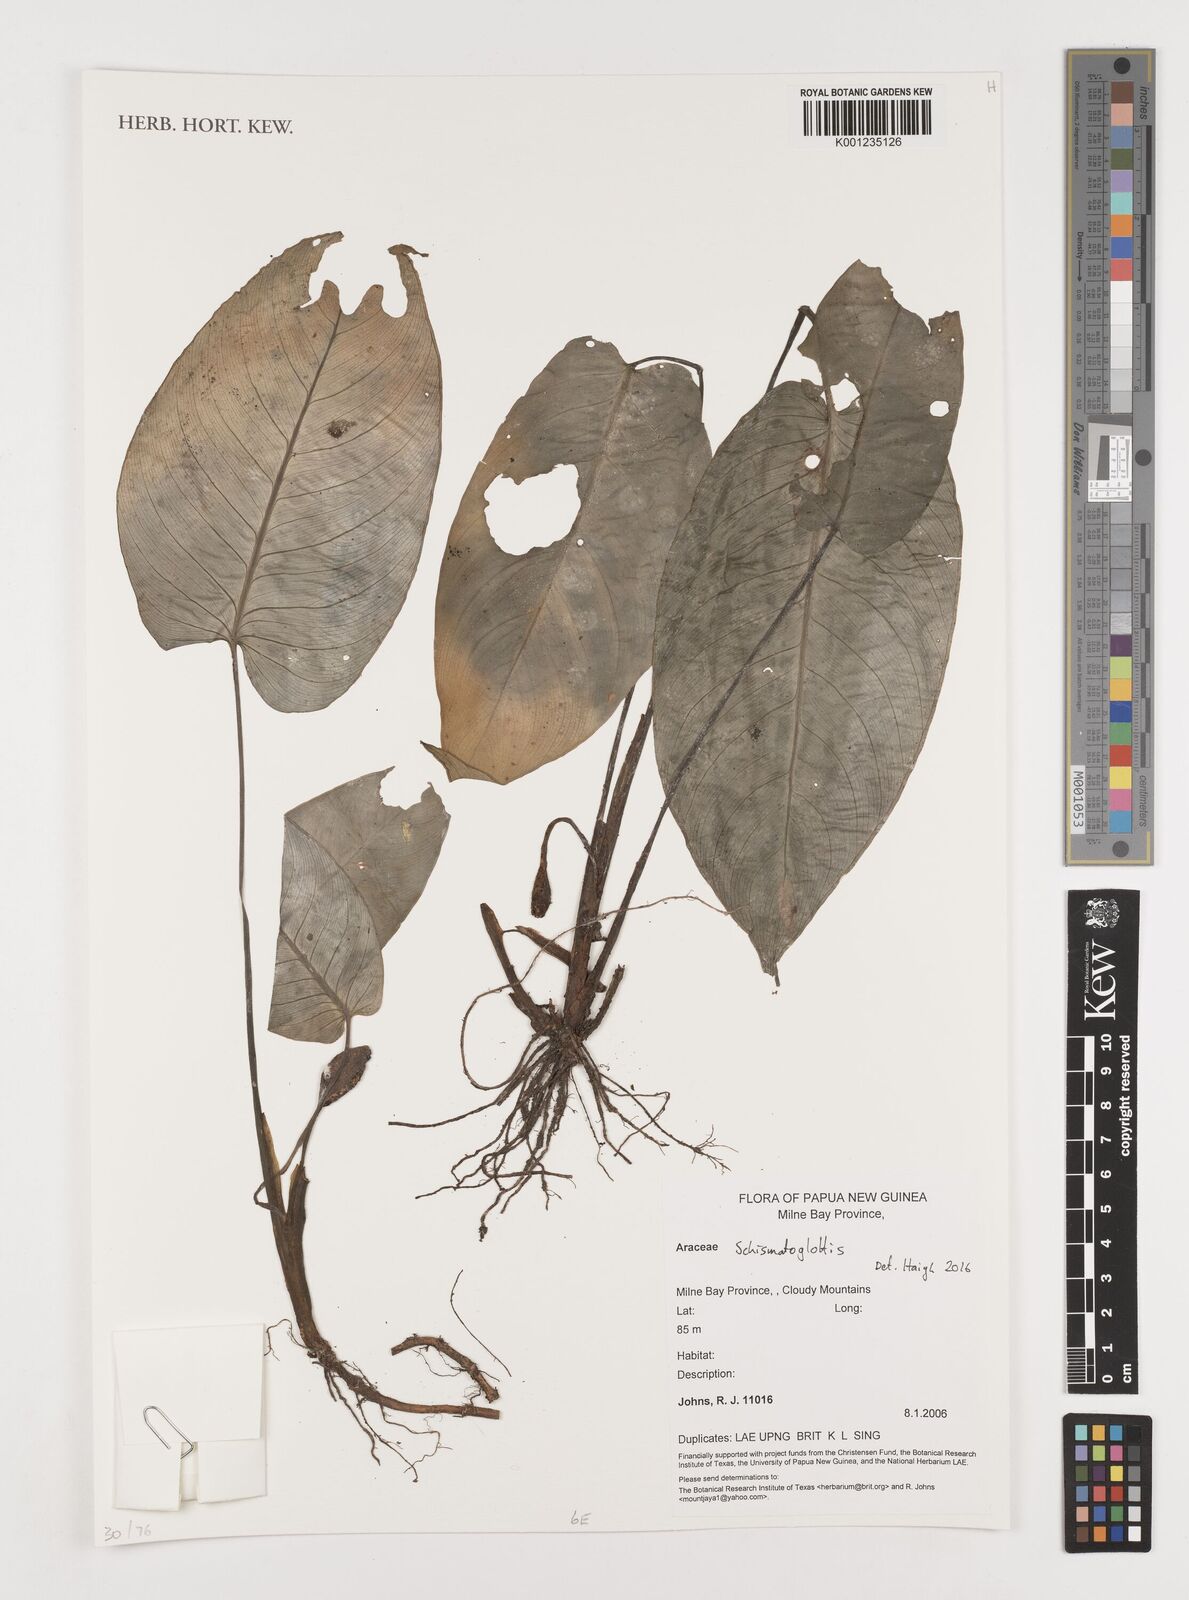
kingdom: Plantae
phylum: Tracheophyta
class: Liliopsida
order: Alismatales
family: Araceae
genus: Schismatoglottis
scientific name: Schismatoglottis
